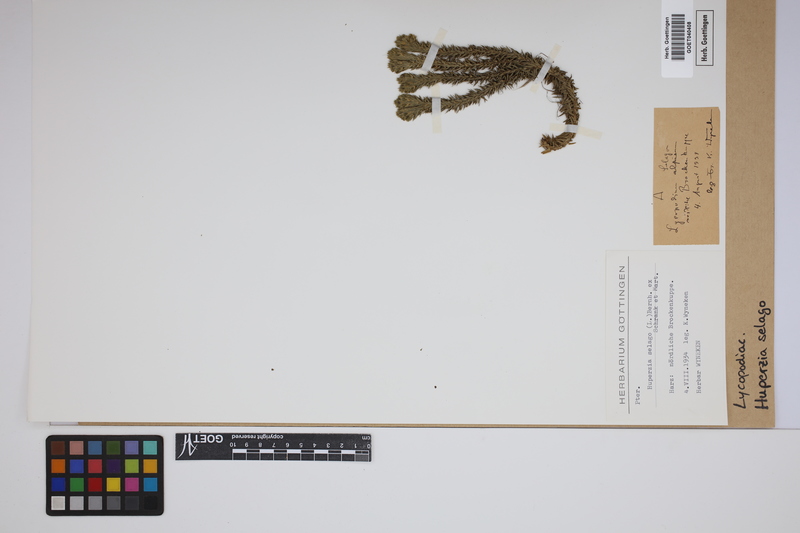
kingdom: Plantae
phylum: Tracheophyta
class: Lycopodiopsida
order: Lycopodiales
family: Lycopodiaceae
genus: Huperzia
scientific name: Huperzia selago
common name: Northern firmoss
